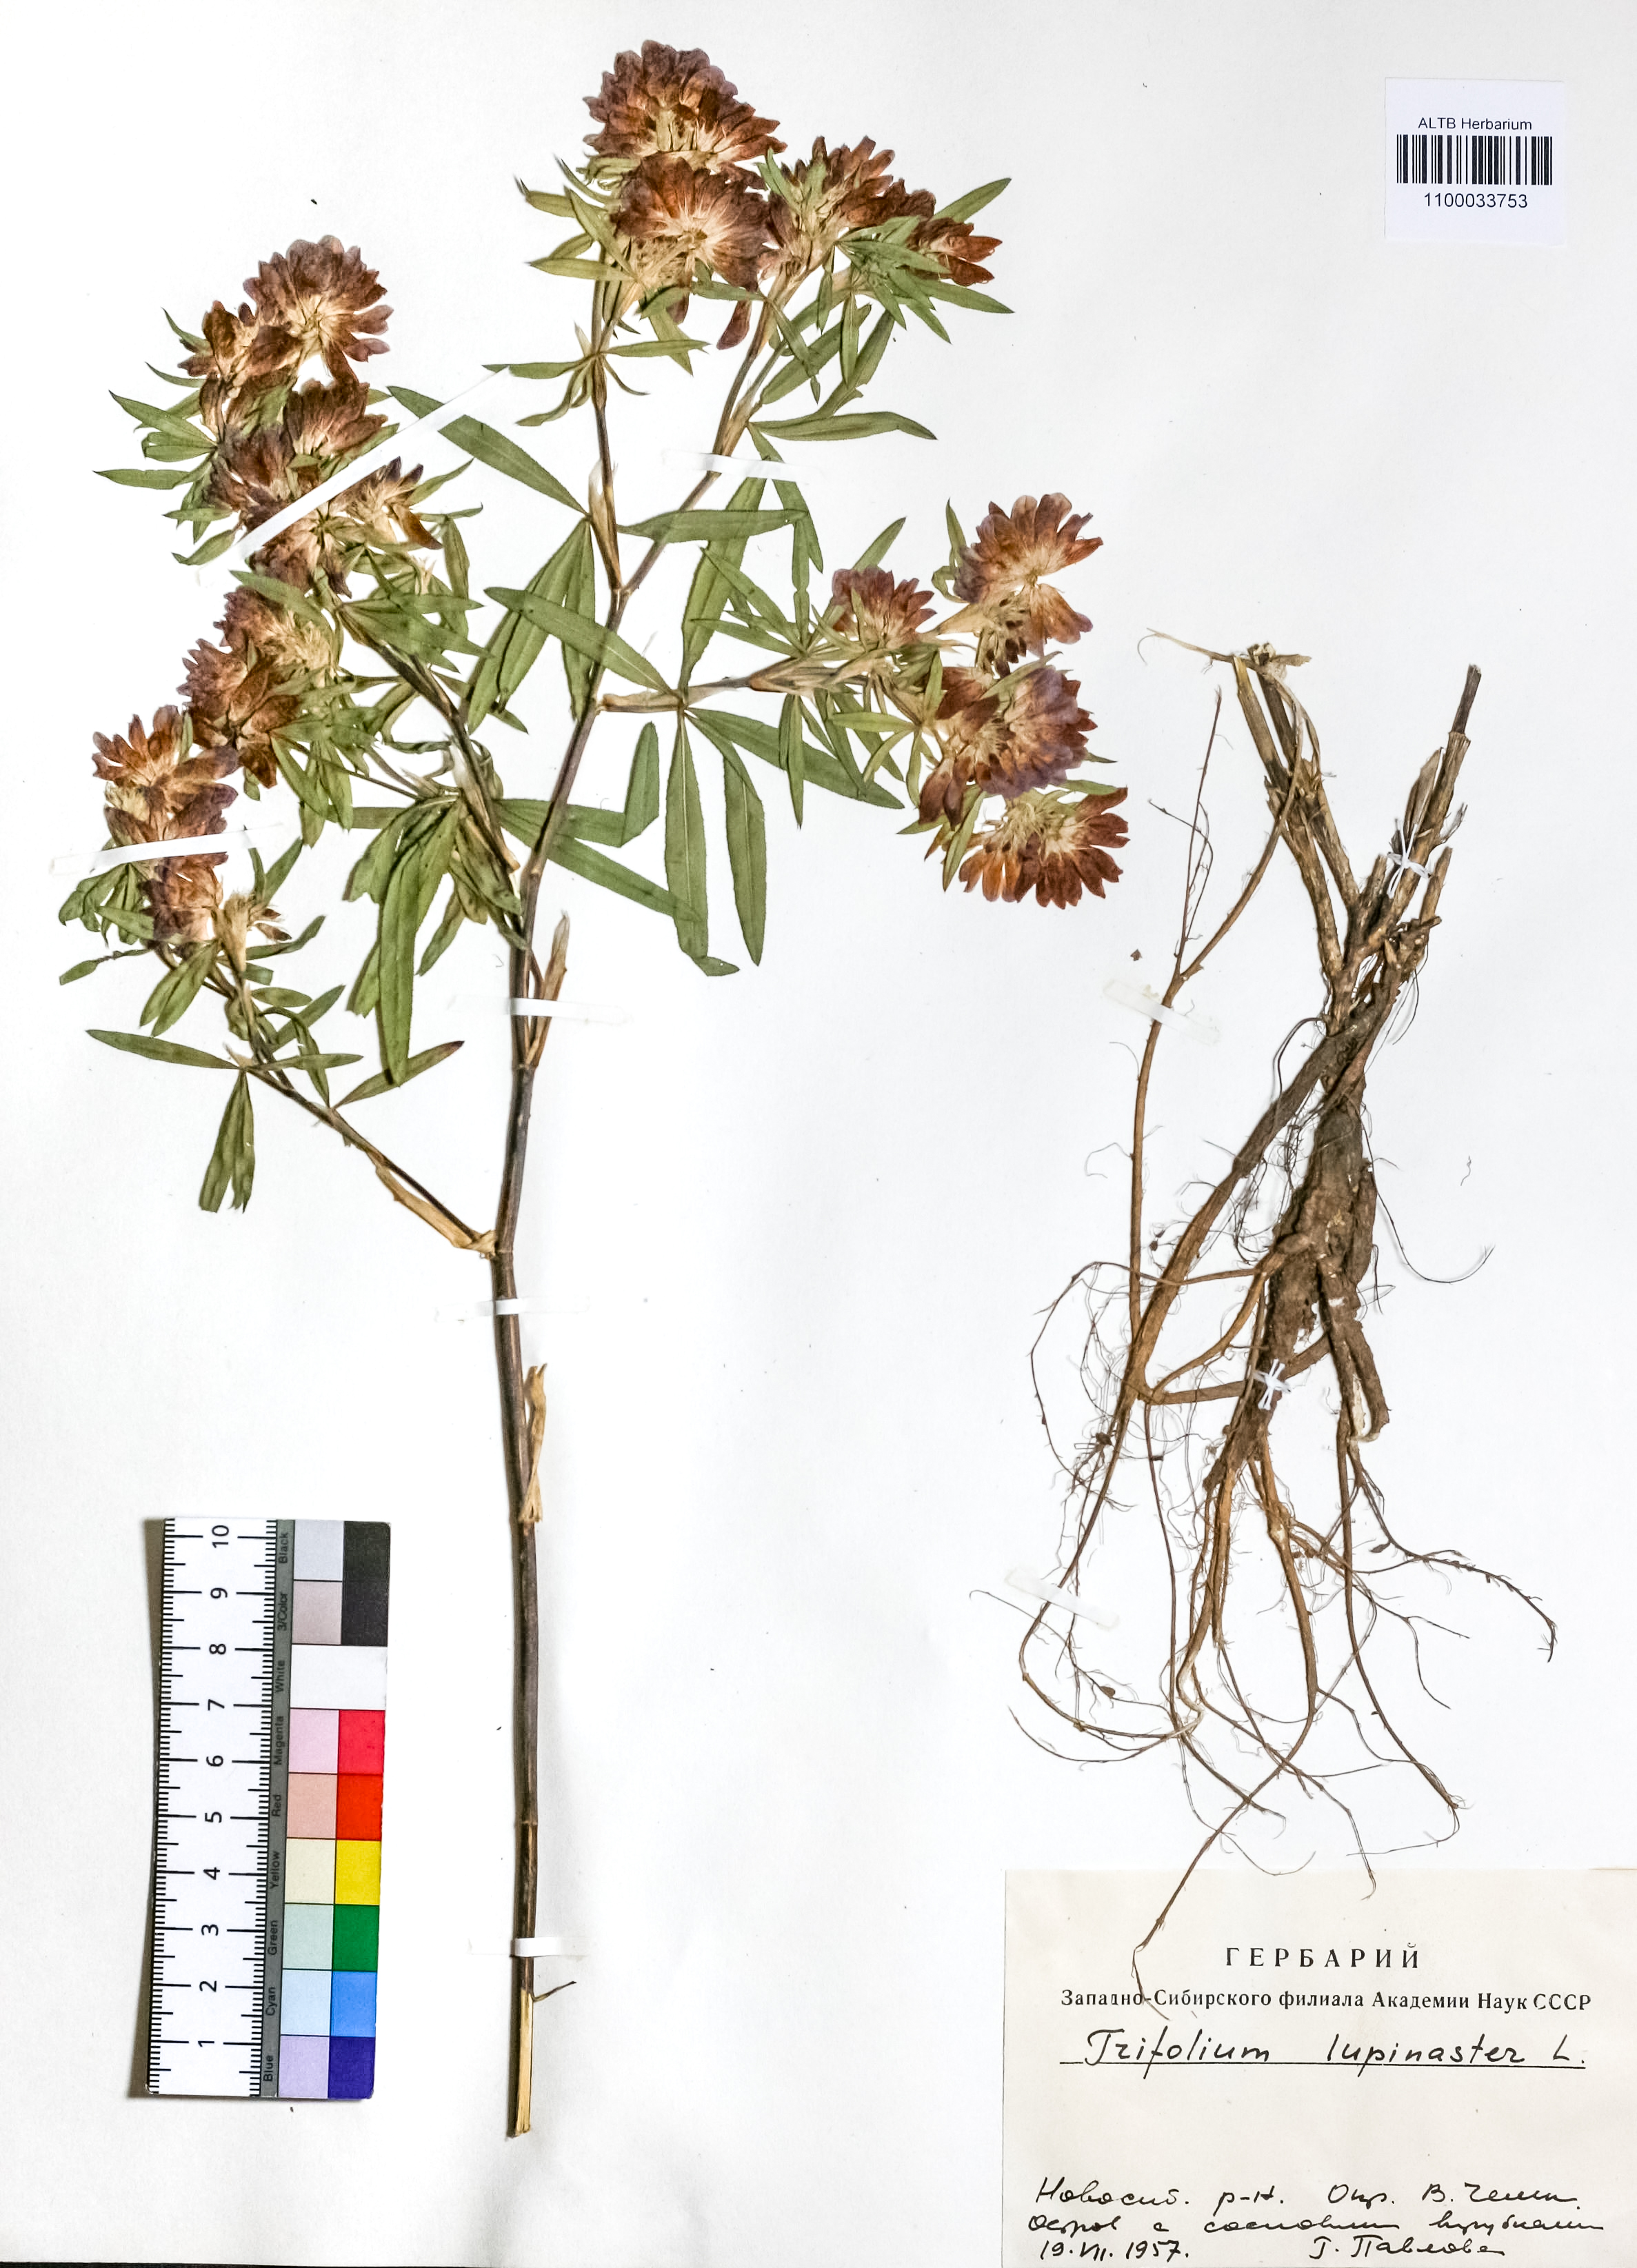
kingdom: Plantae
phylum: Tracheophyta
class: Magnoliopsida
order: Fabales
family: Fabaceae
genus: Trifolium
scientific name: Trifolium lupinaster
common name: Lupine clover
